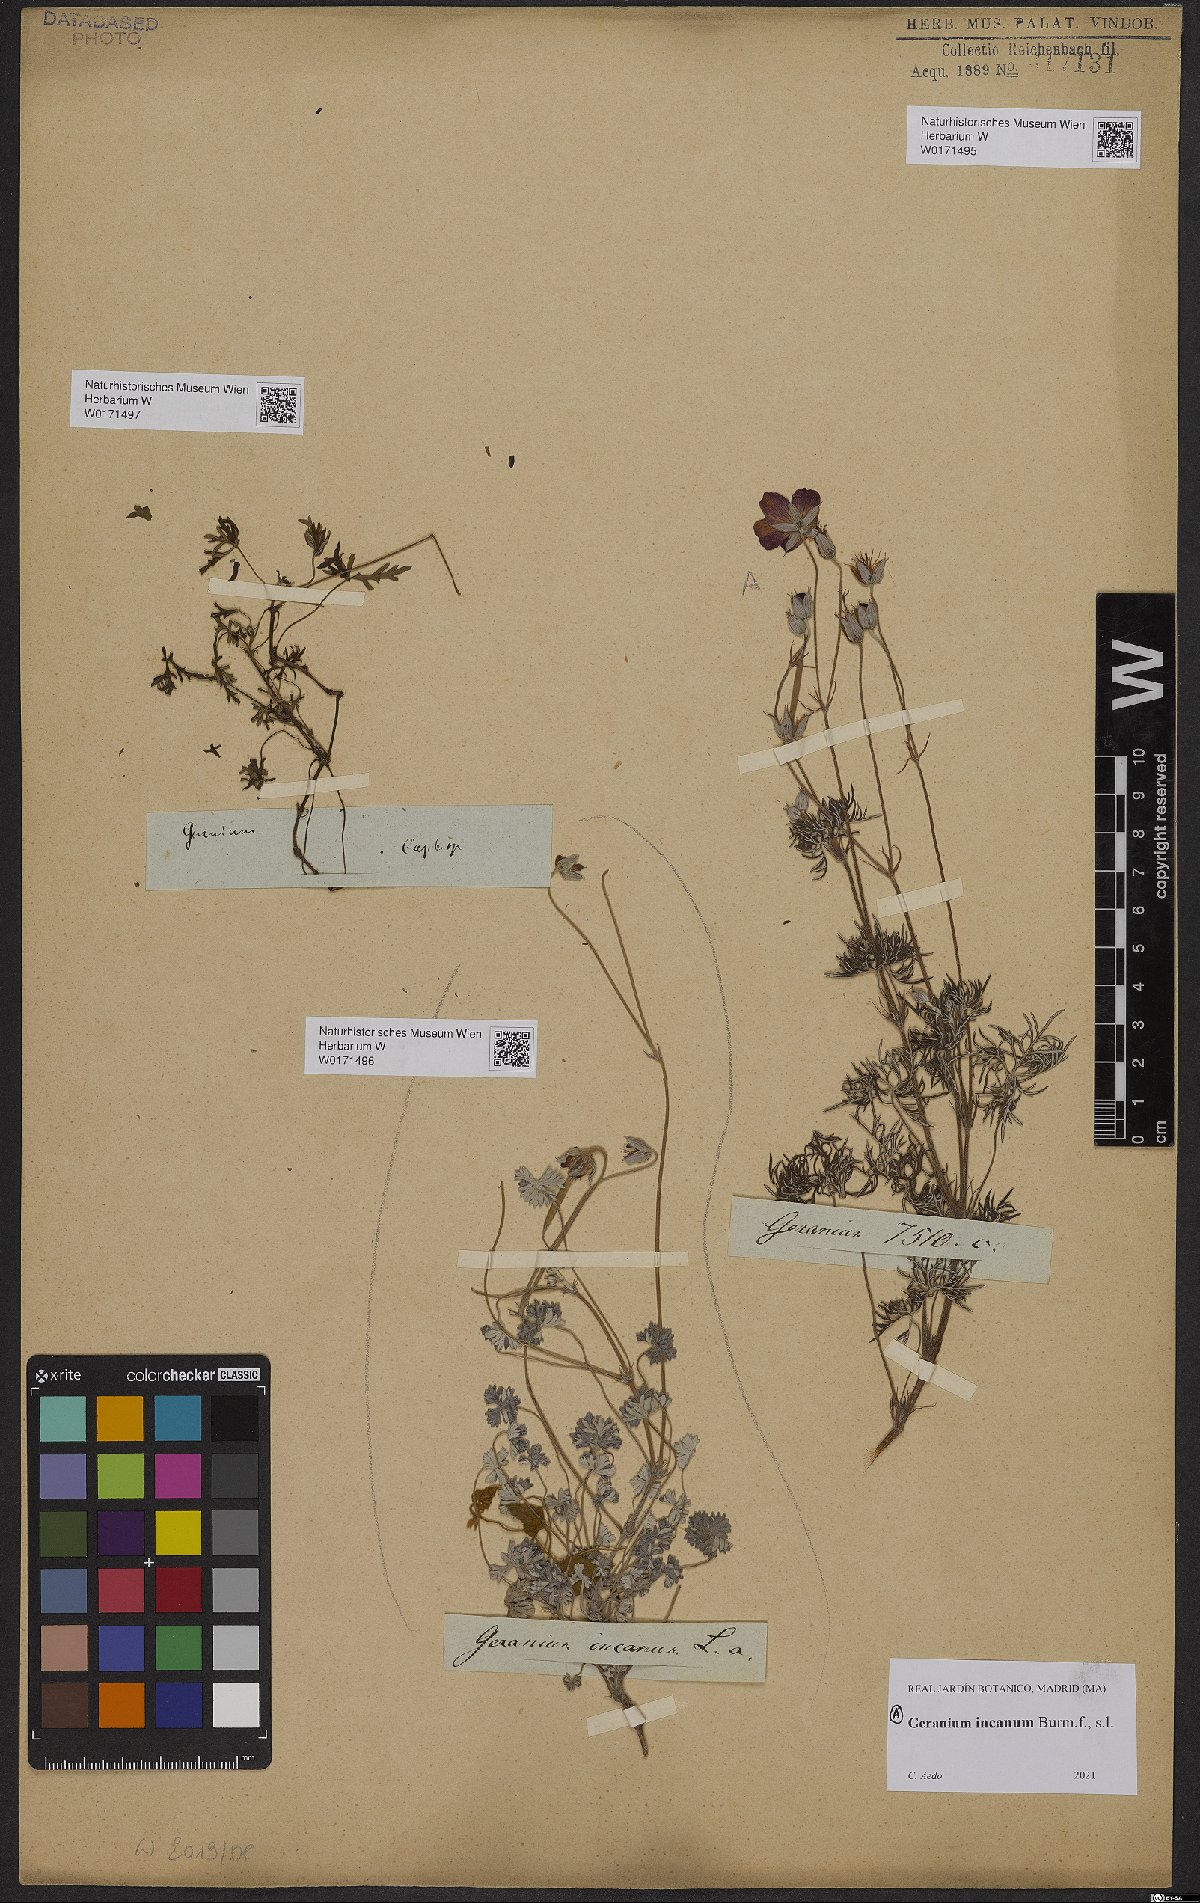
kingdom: Plantae
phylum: Tracheophyta
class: Magnoliopsida
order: Geraniales
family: Geraniaceae
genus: Geranium
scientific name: Geranium
